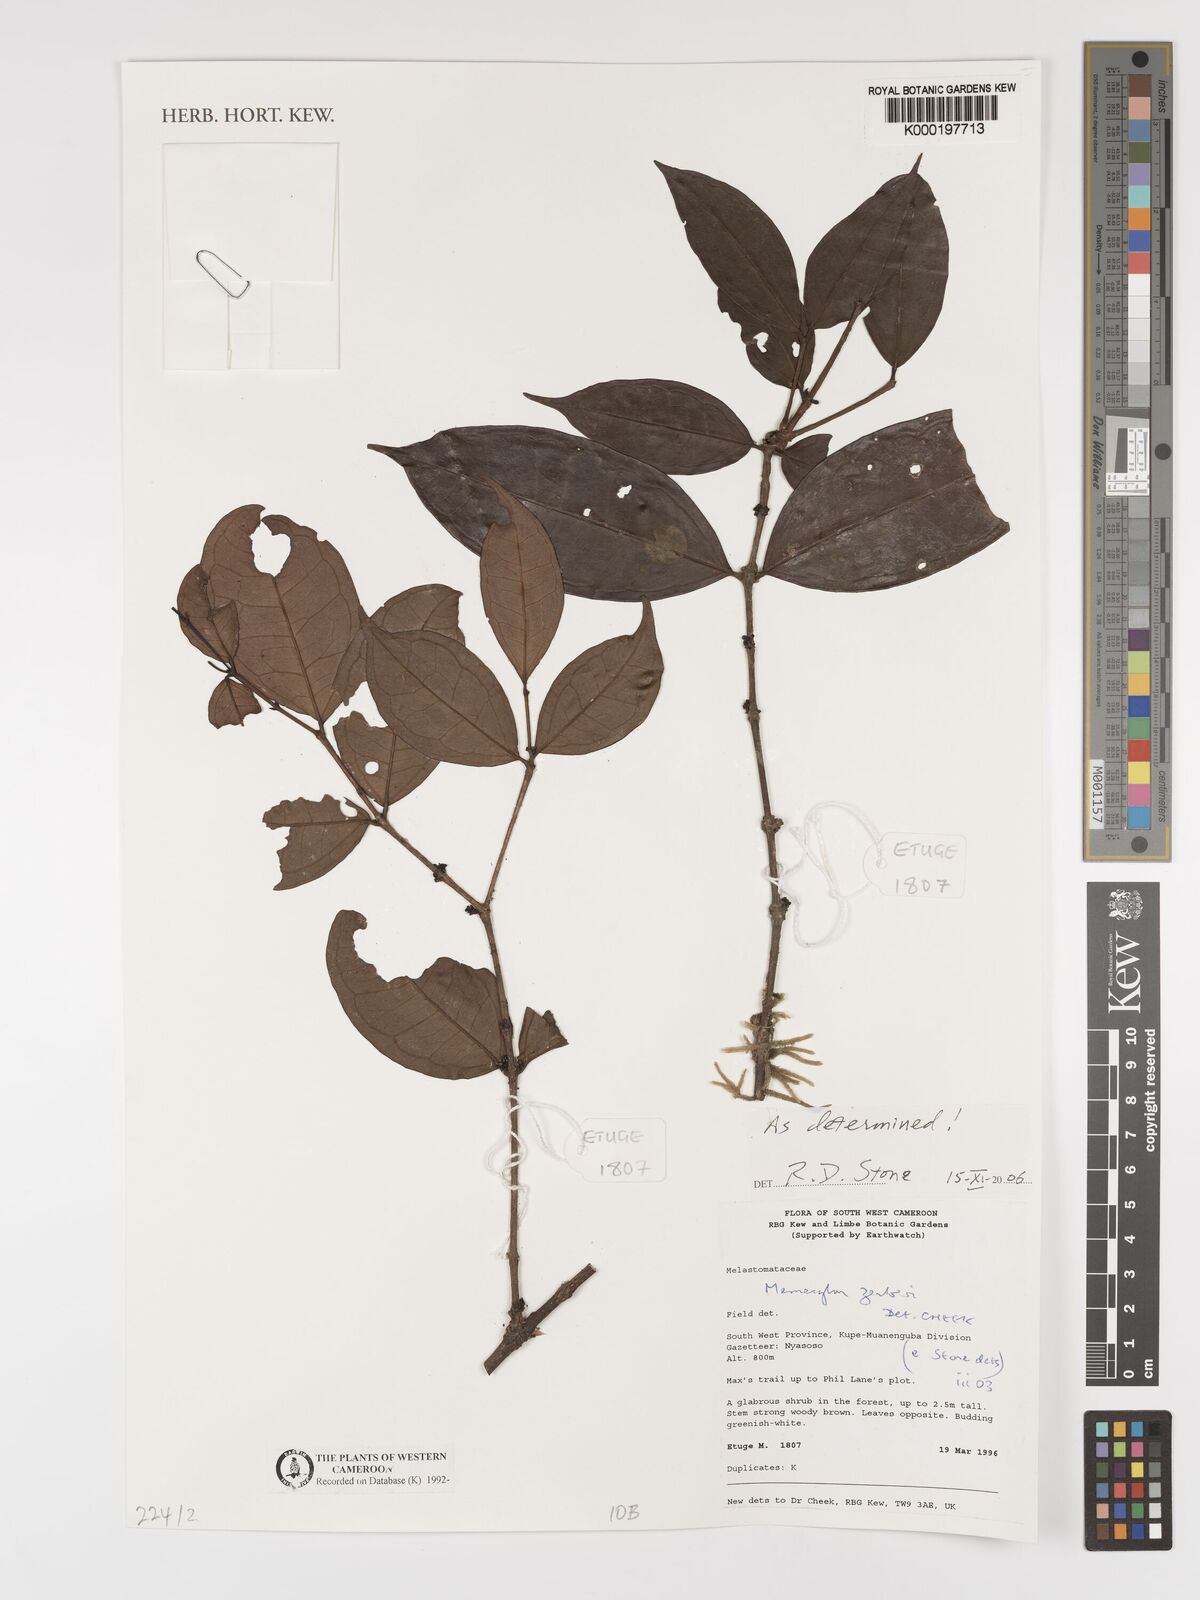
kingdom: Plantae
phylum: Tracheophyta
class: Magnoliopsida
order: Myrtales
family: Melastomataceae
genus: Memecylon
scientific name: Memecylon zenkeri
